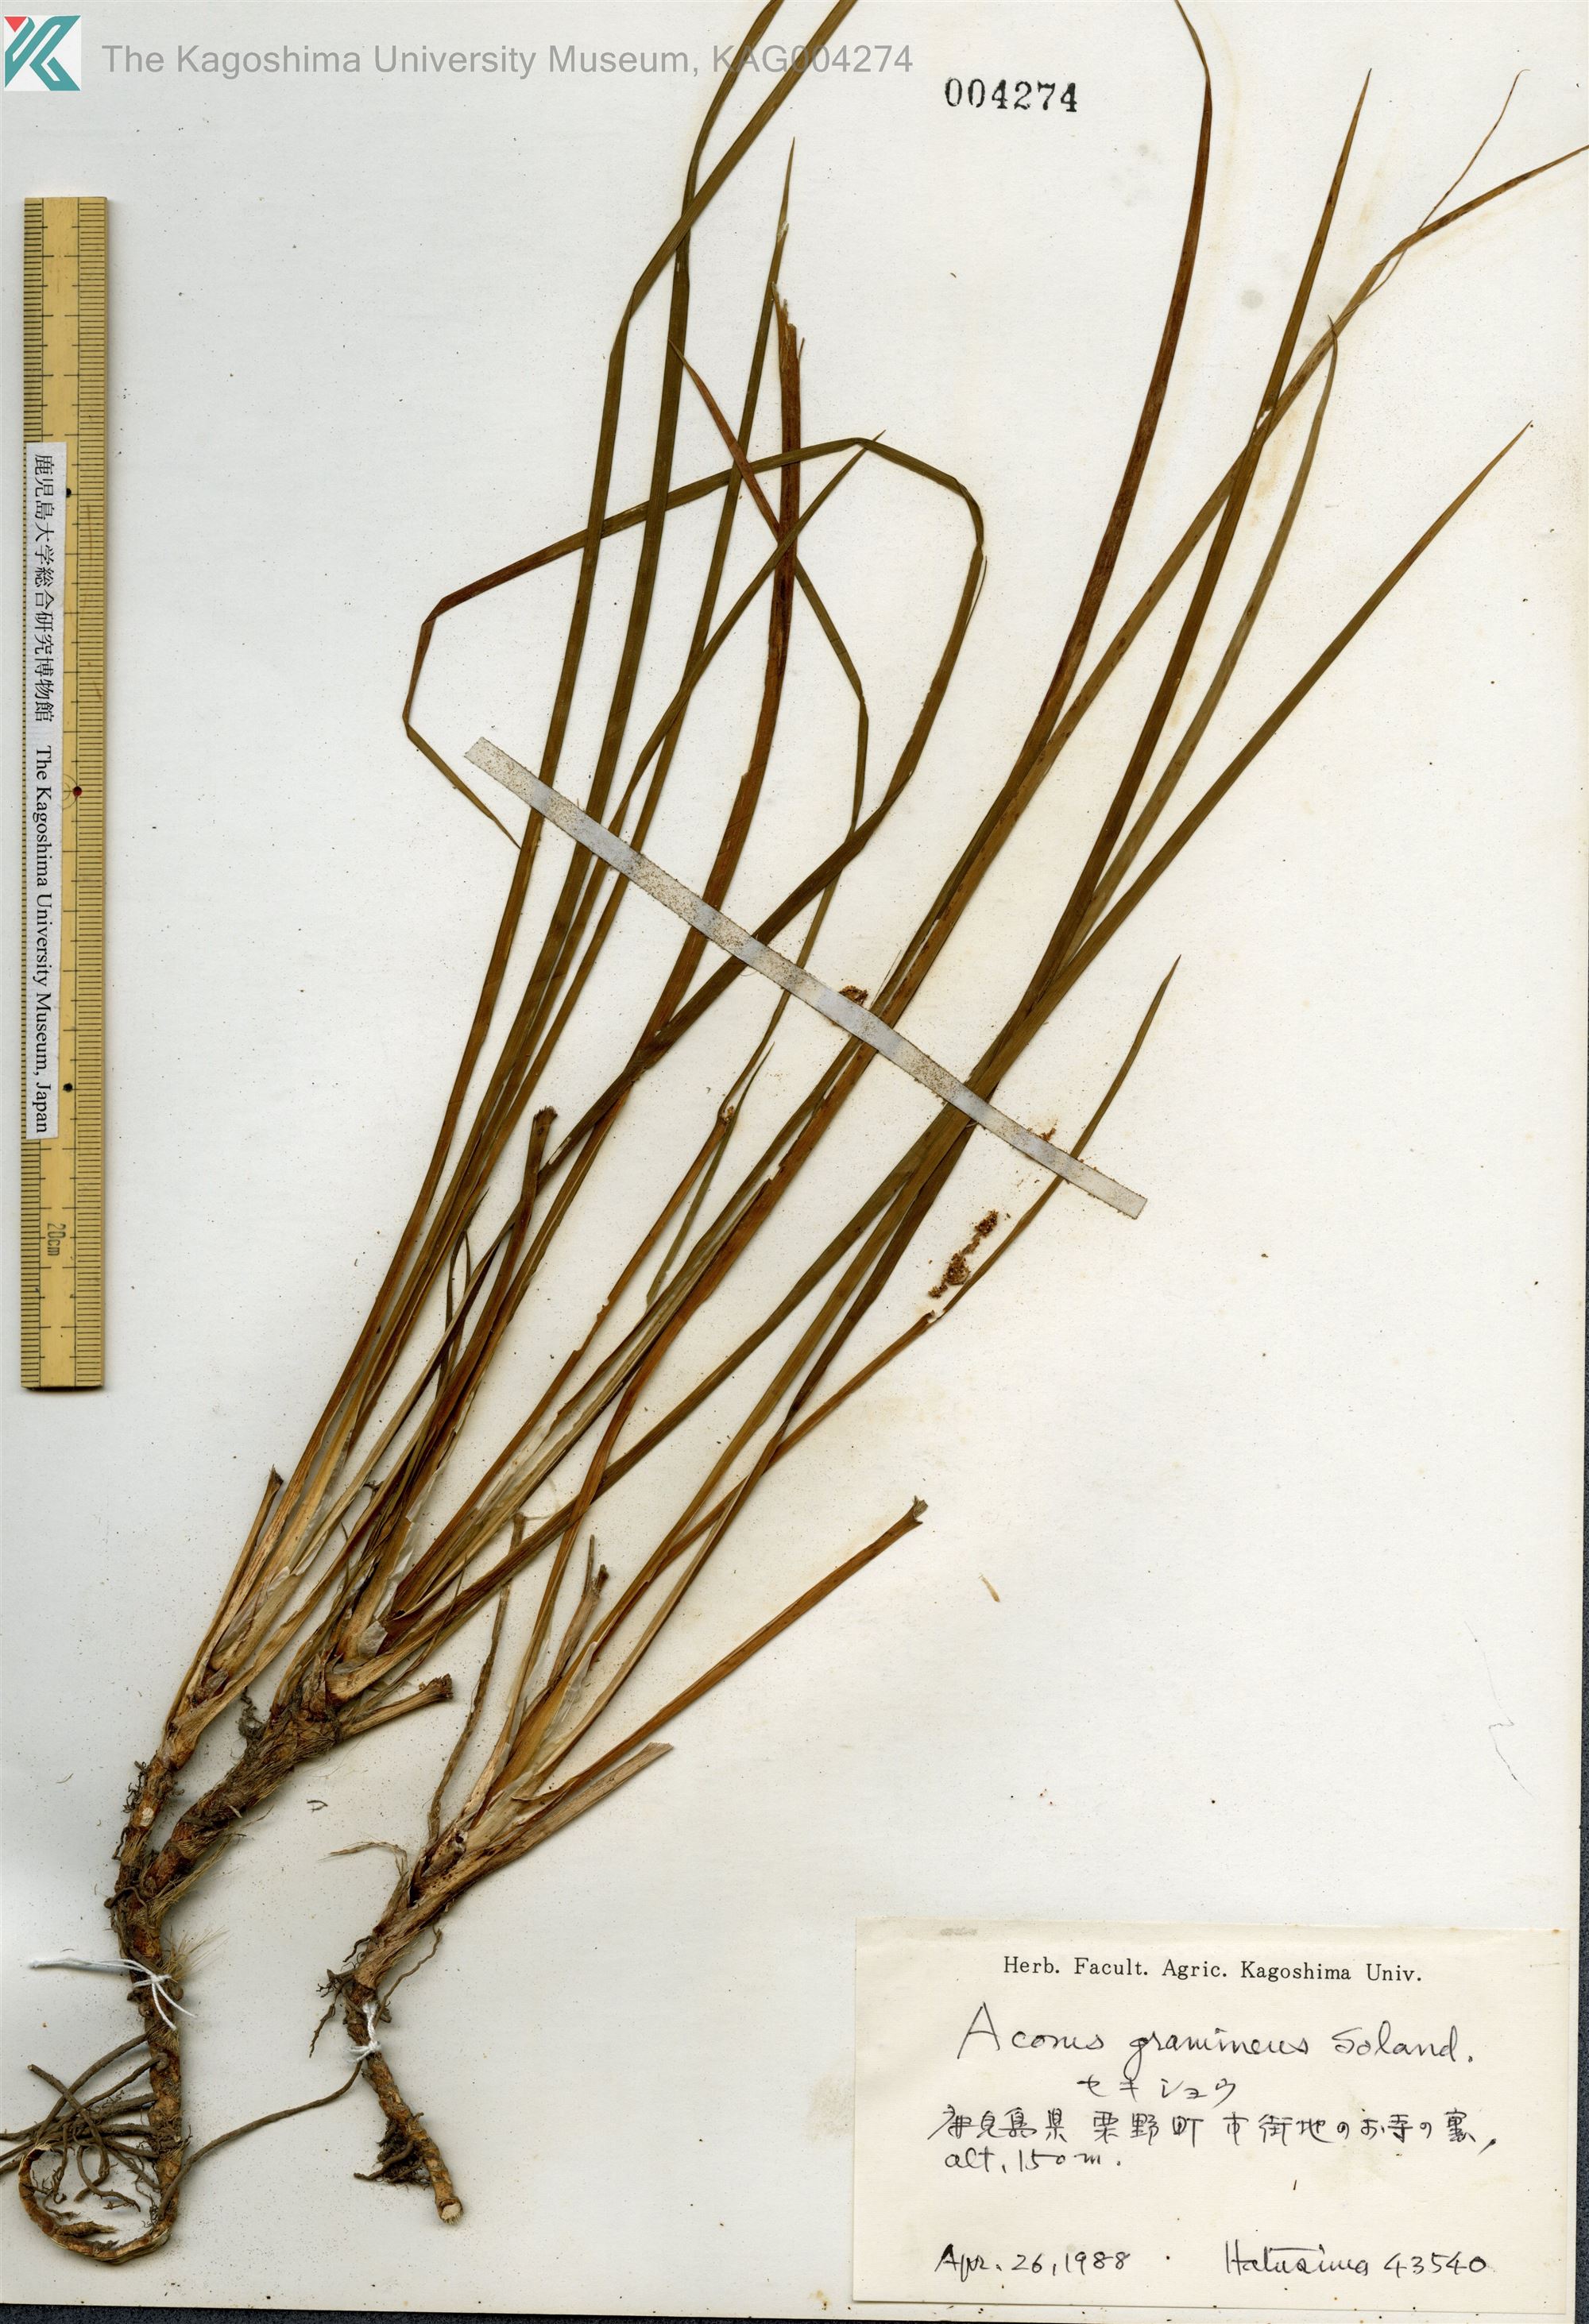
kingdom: Plantae
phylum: Tracheophyta
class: Liliopsida
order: Acorales
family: Acoraceae
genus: Acorus
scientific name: Acorus gramineus
